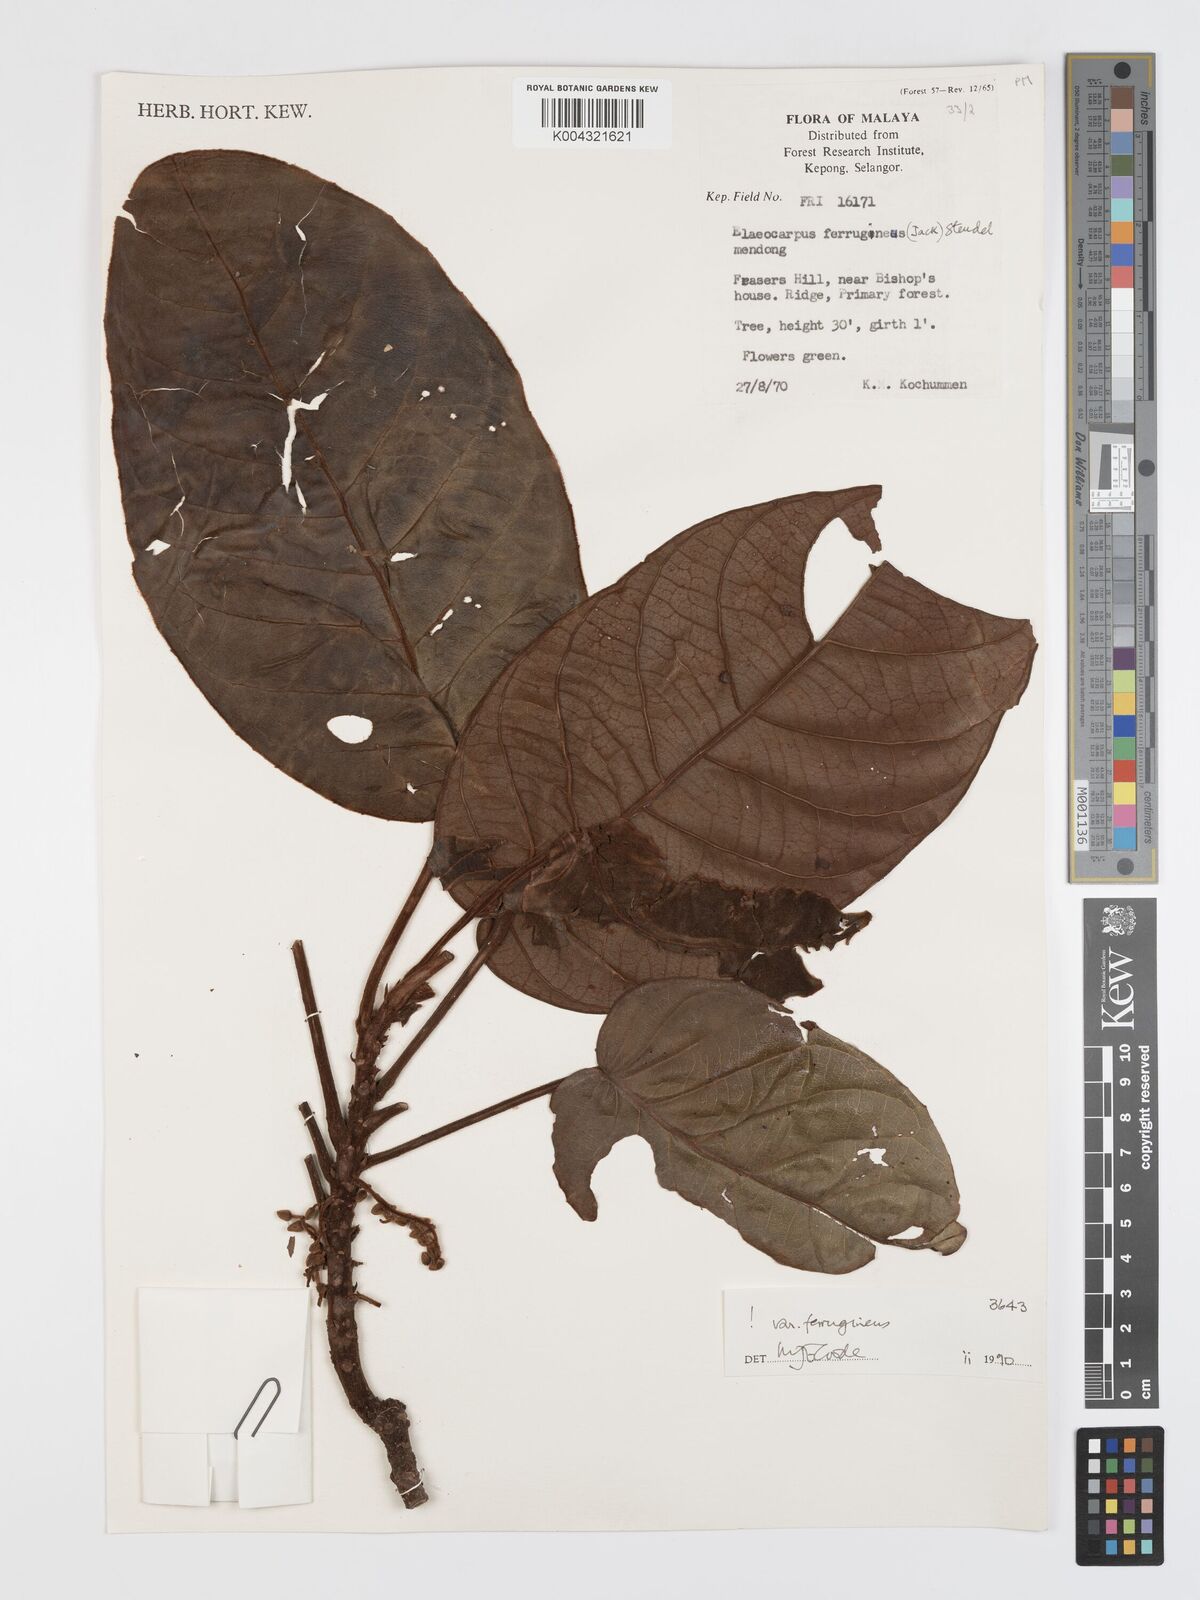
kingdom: Plantae
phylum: Tracheophyta
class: Magnoliopsida
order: Oxalidales
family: Elaeocarpaceae
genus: Elaeocarpus
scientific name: Elaeocarpus ferrugineus
